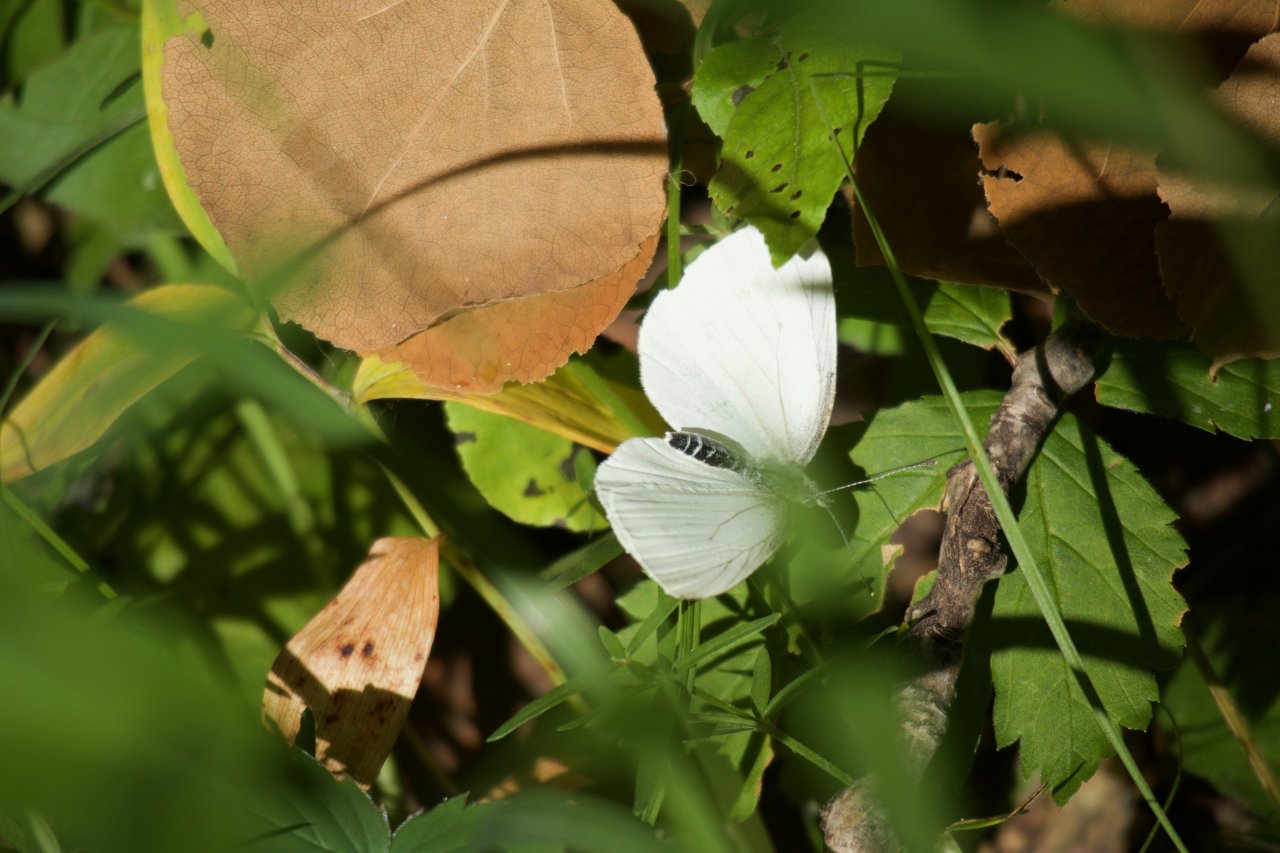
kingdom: Animalia
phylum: Arthropoda
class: Insecta
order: Lepidoptera
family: Pieridae
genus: Pieris
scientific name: Pieris oleracea
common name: Mustard White
